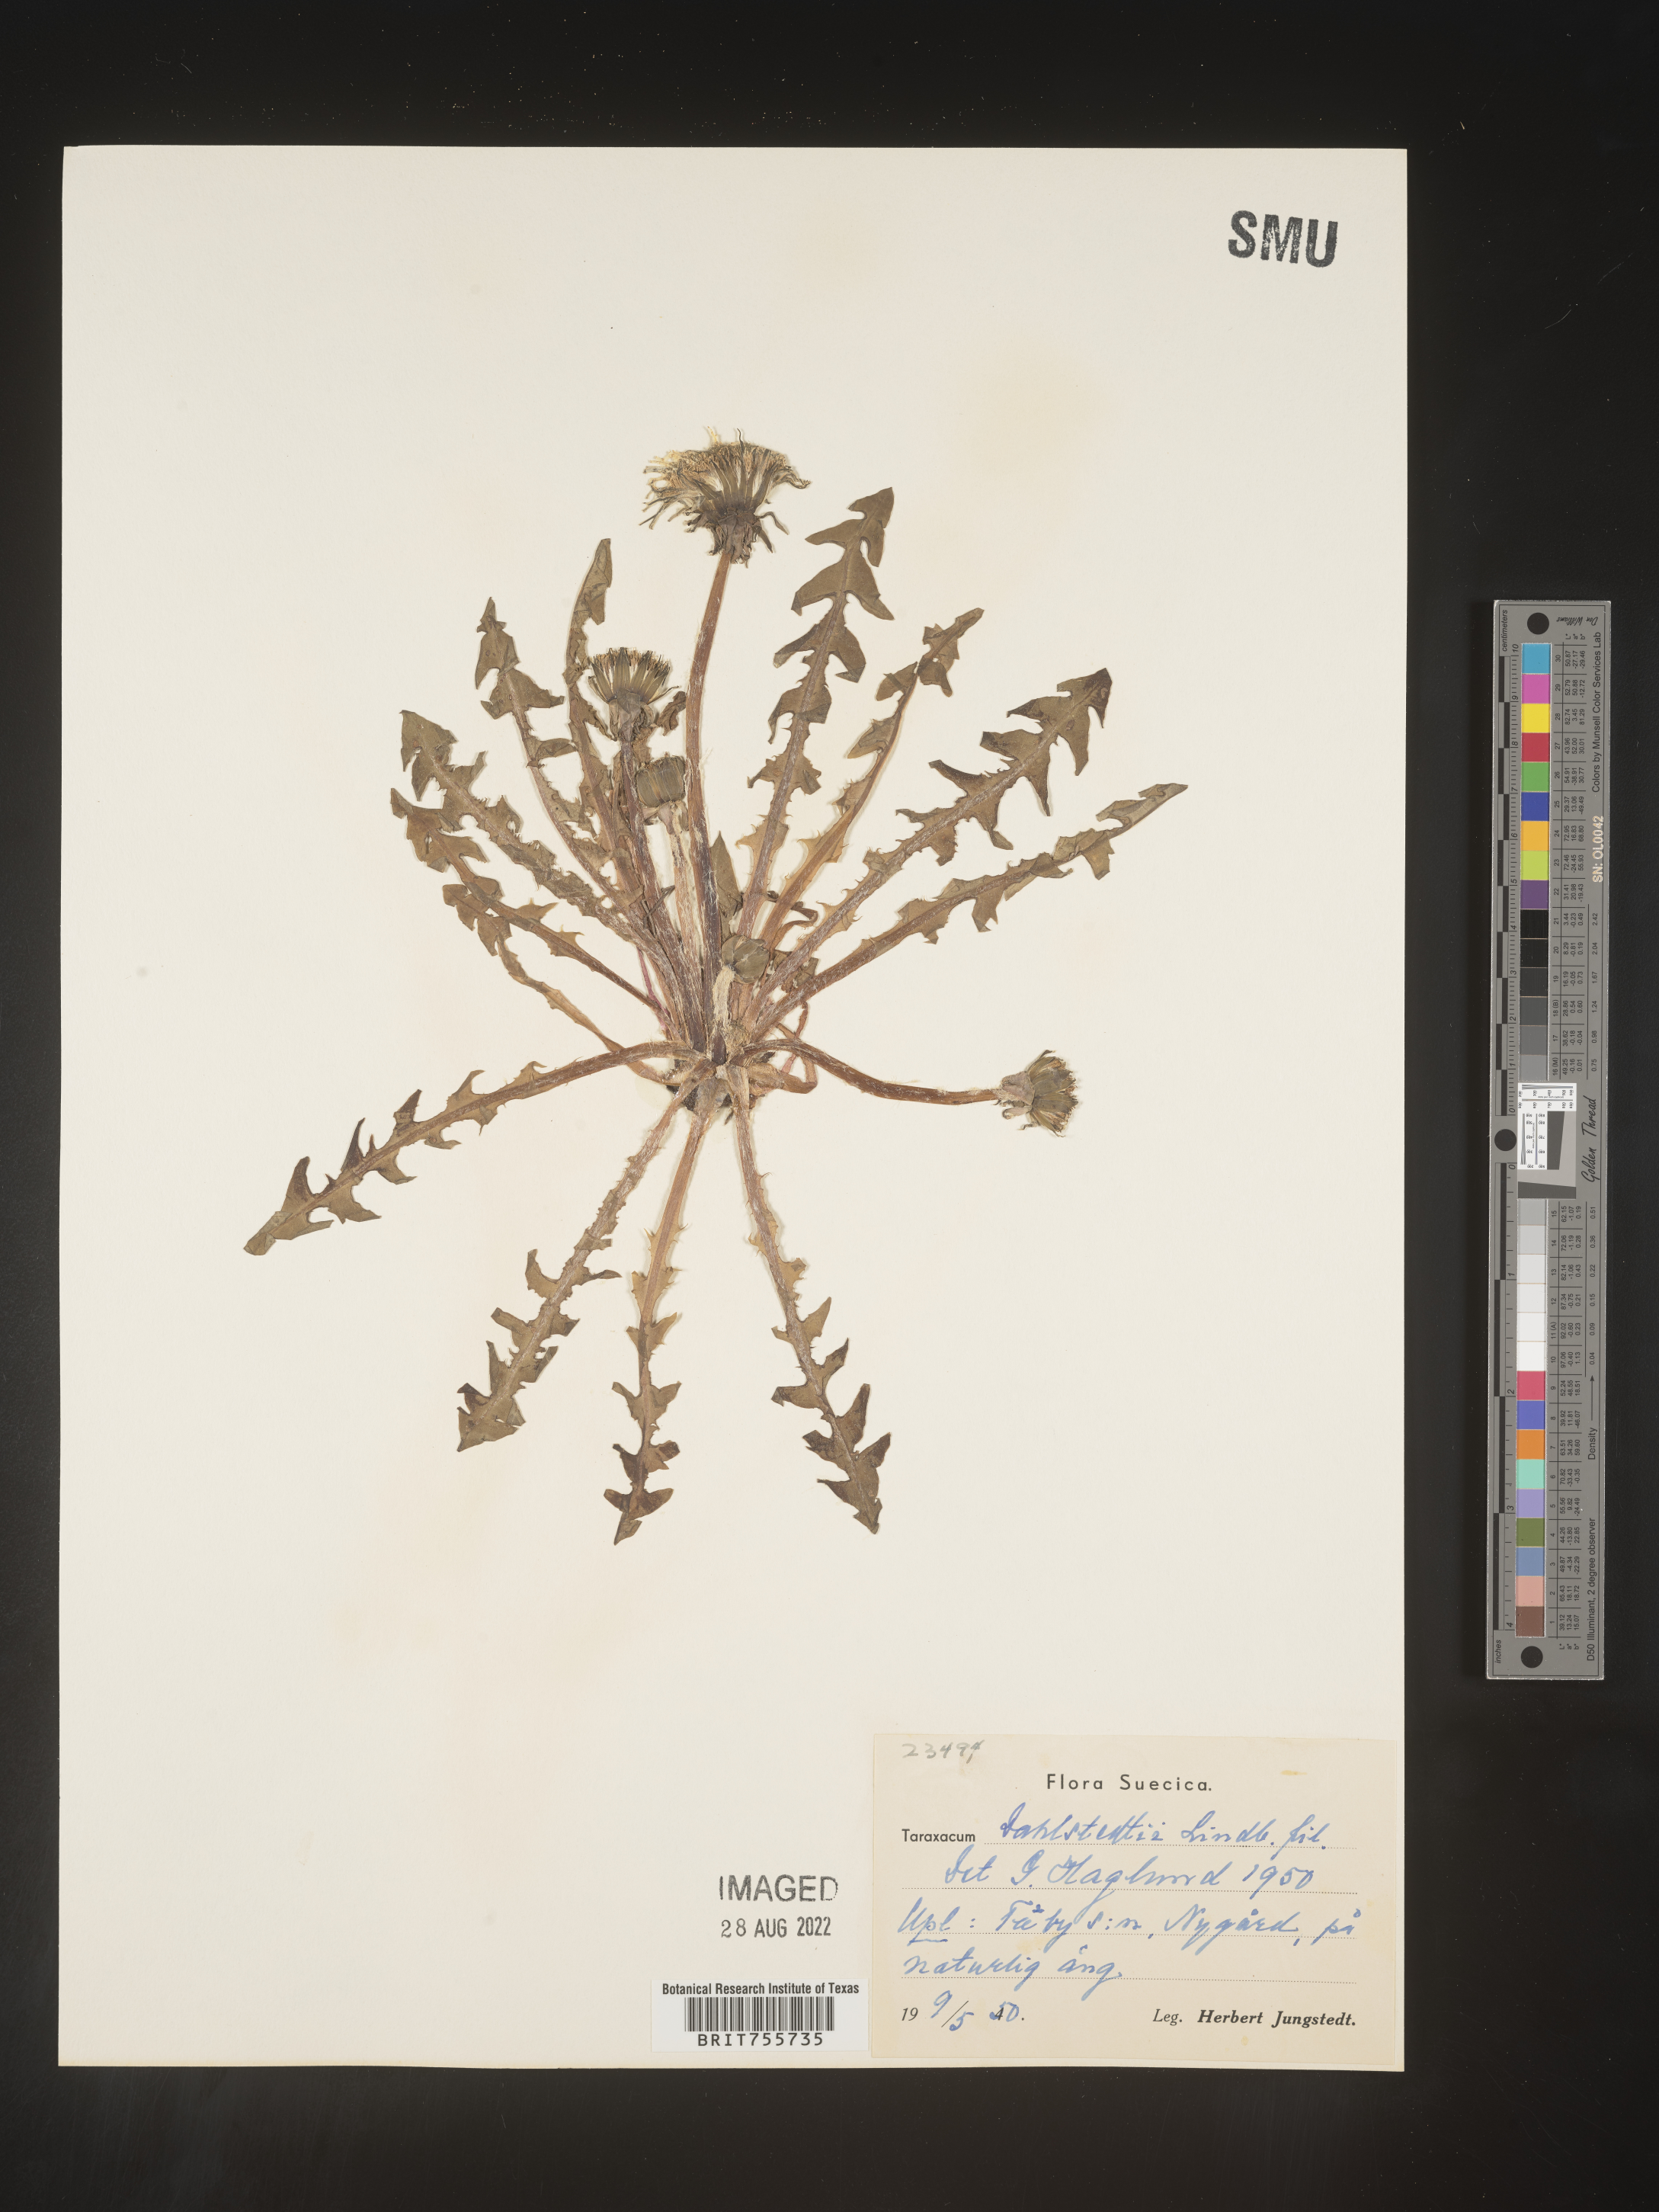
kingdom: Plantae
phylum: Tracheophyta
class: Magnoliopsida
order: Asterales
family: Asteraceae
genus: Taraxacum
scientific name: Taraxacum
